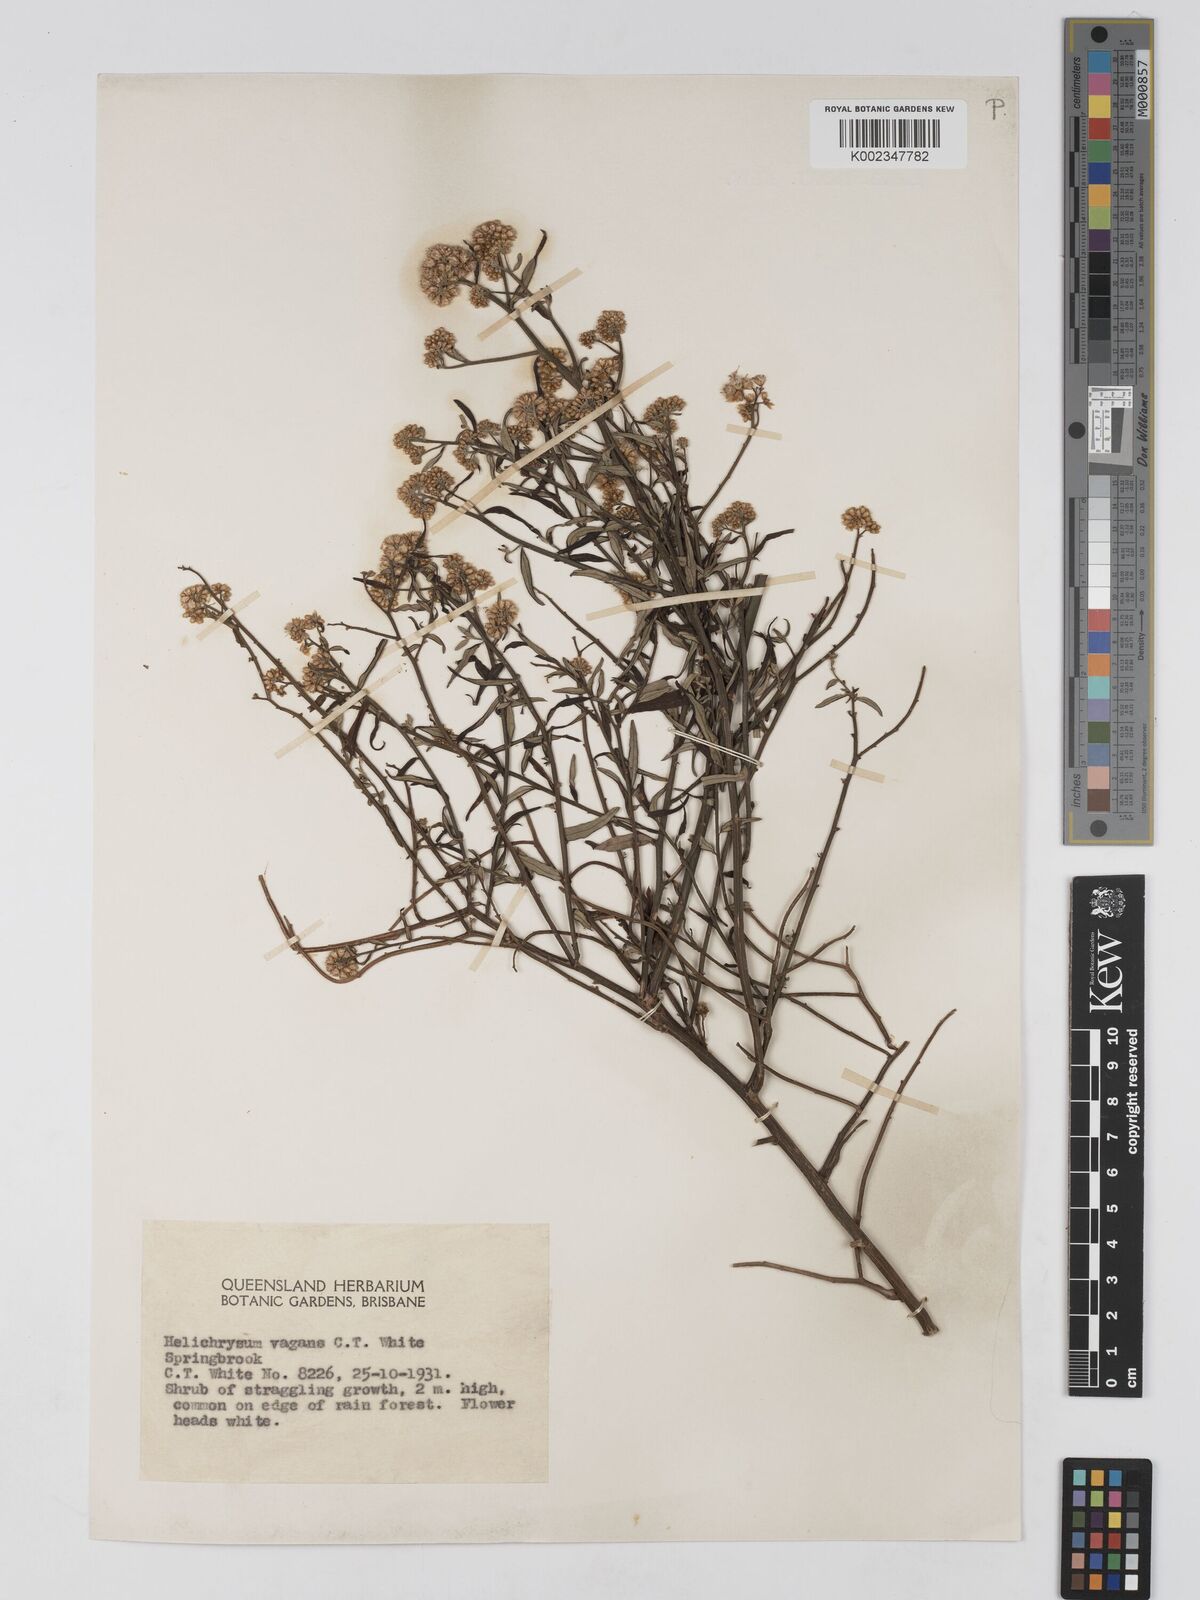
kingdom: Plantae
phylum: Tracheophyta
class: Magnoliopsida
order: Asterales
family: Asteraceae
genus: Ozothamnus
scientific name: Ozothamnus vagans
